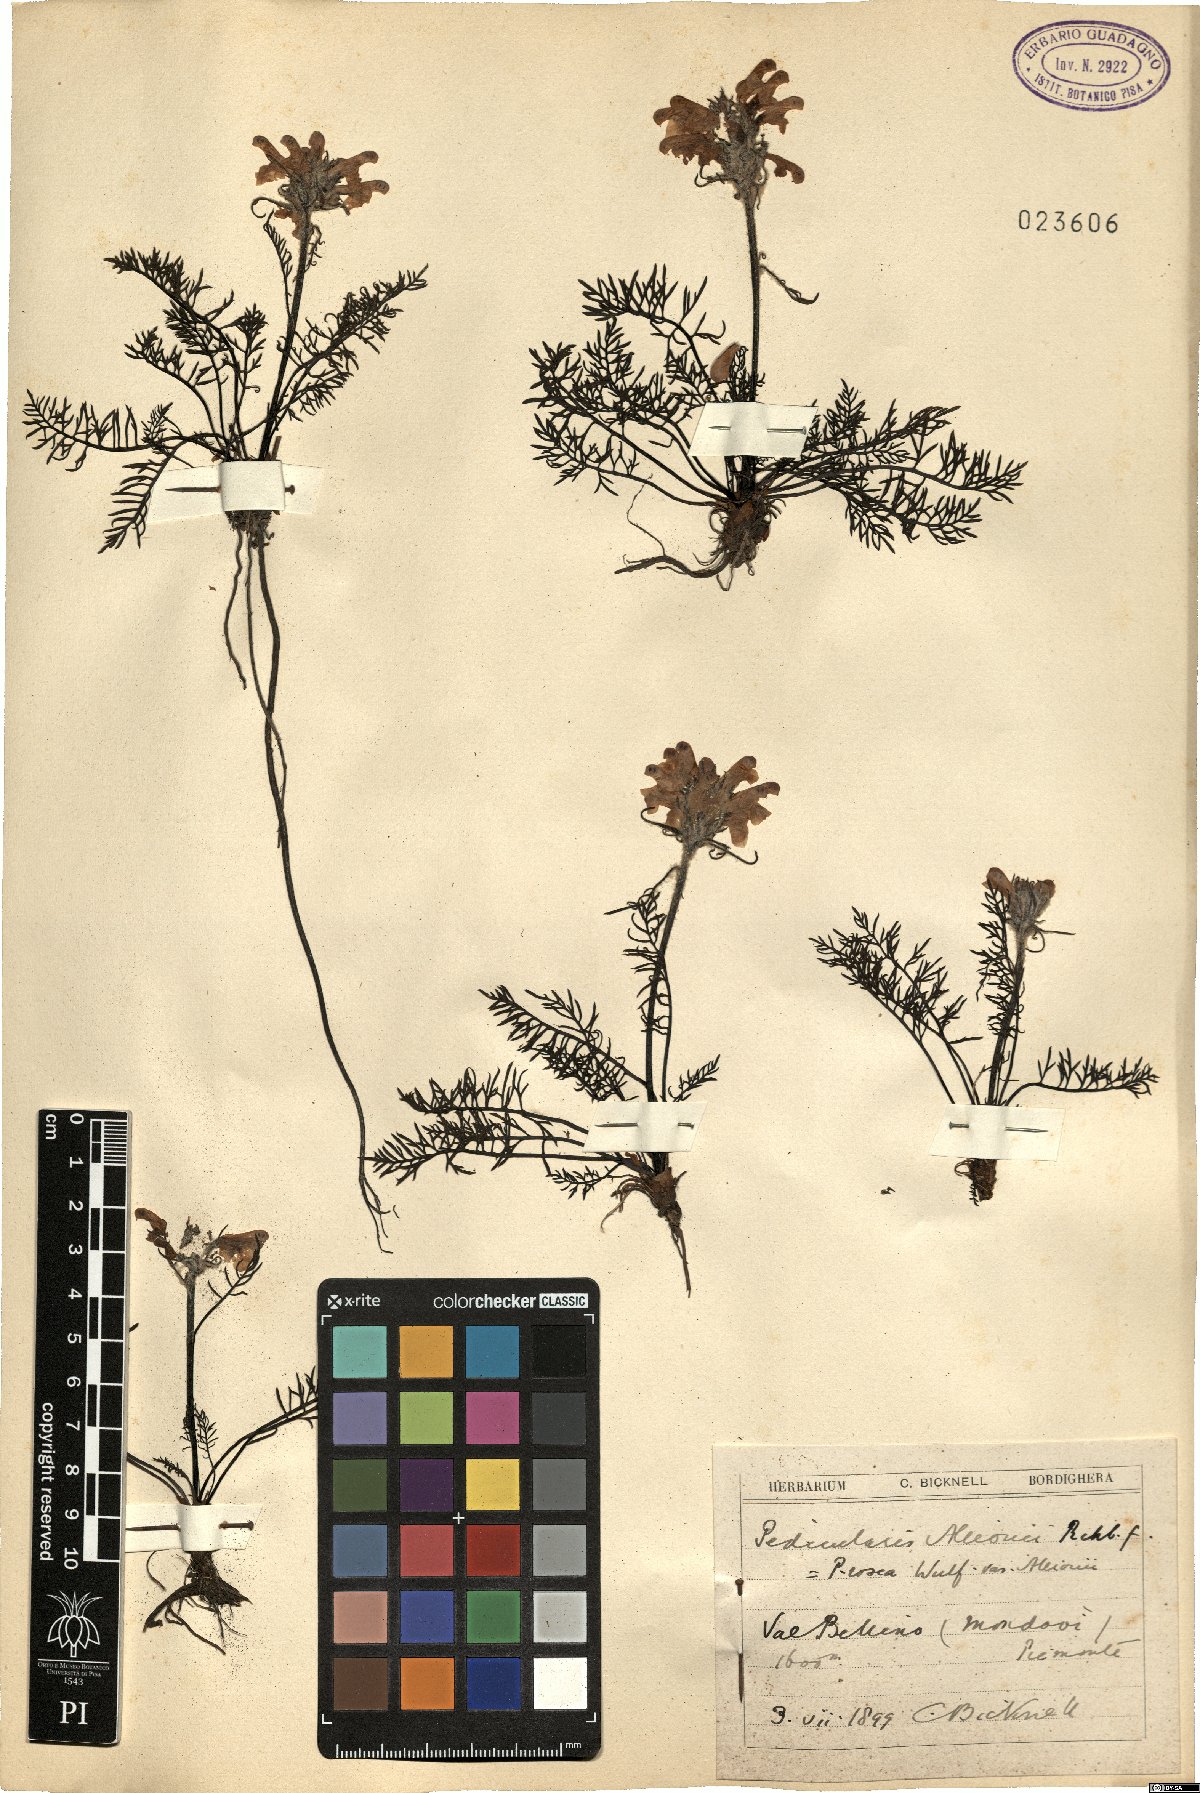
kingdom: Plantae
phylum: Tracheophyta
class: Magnoliopsida
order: Lamiales
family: Orobanchaceae
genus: Pedicularis
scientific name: Pedicularis rosea
